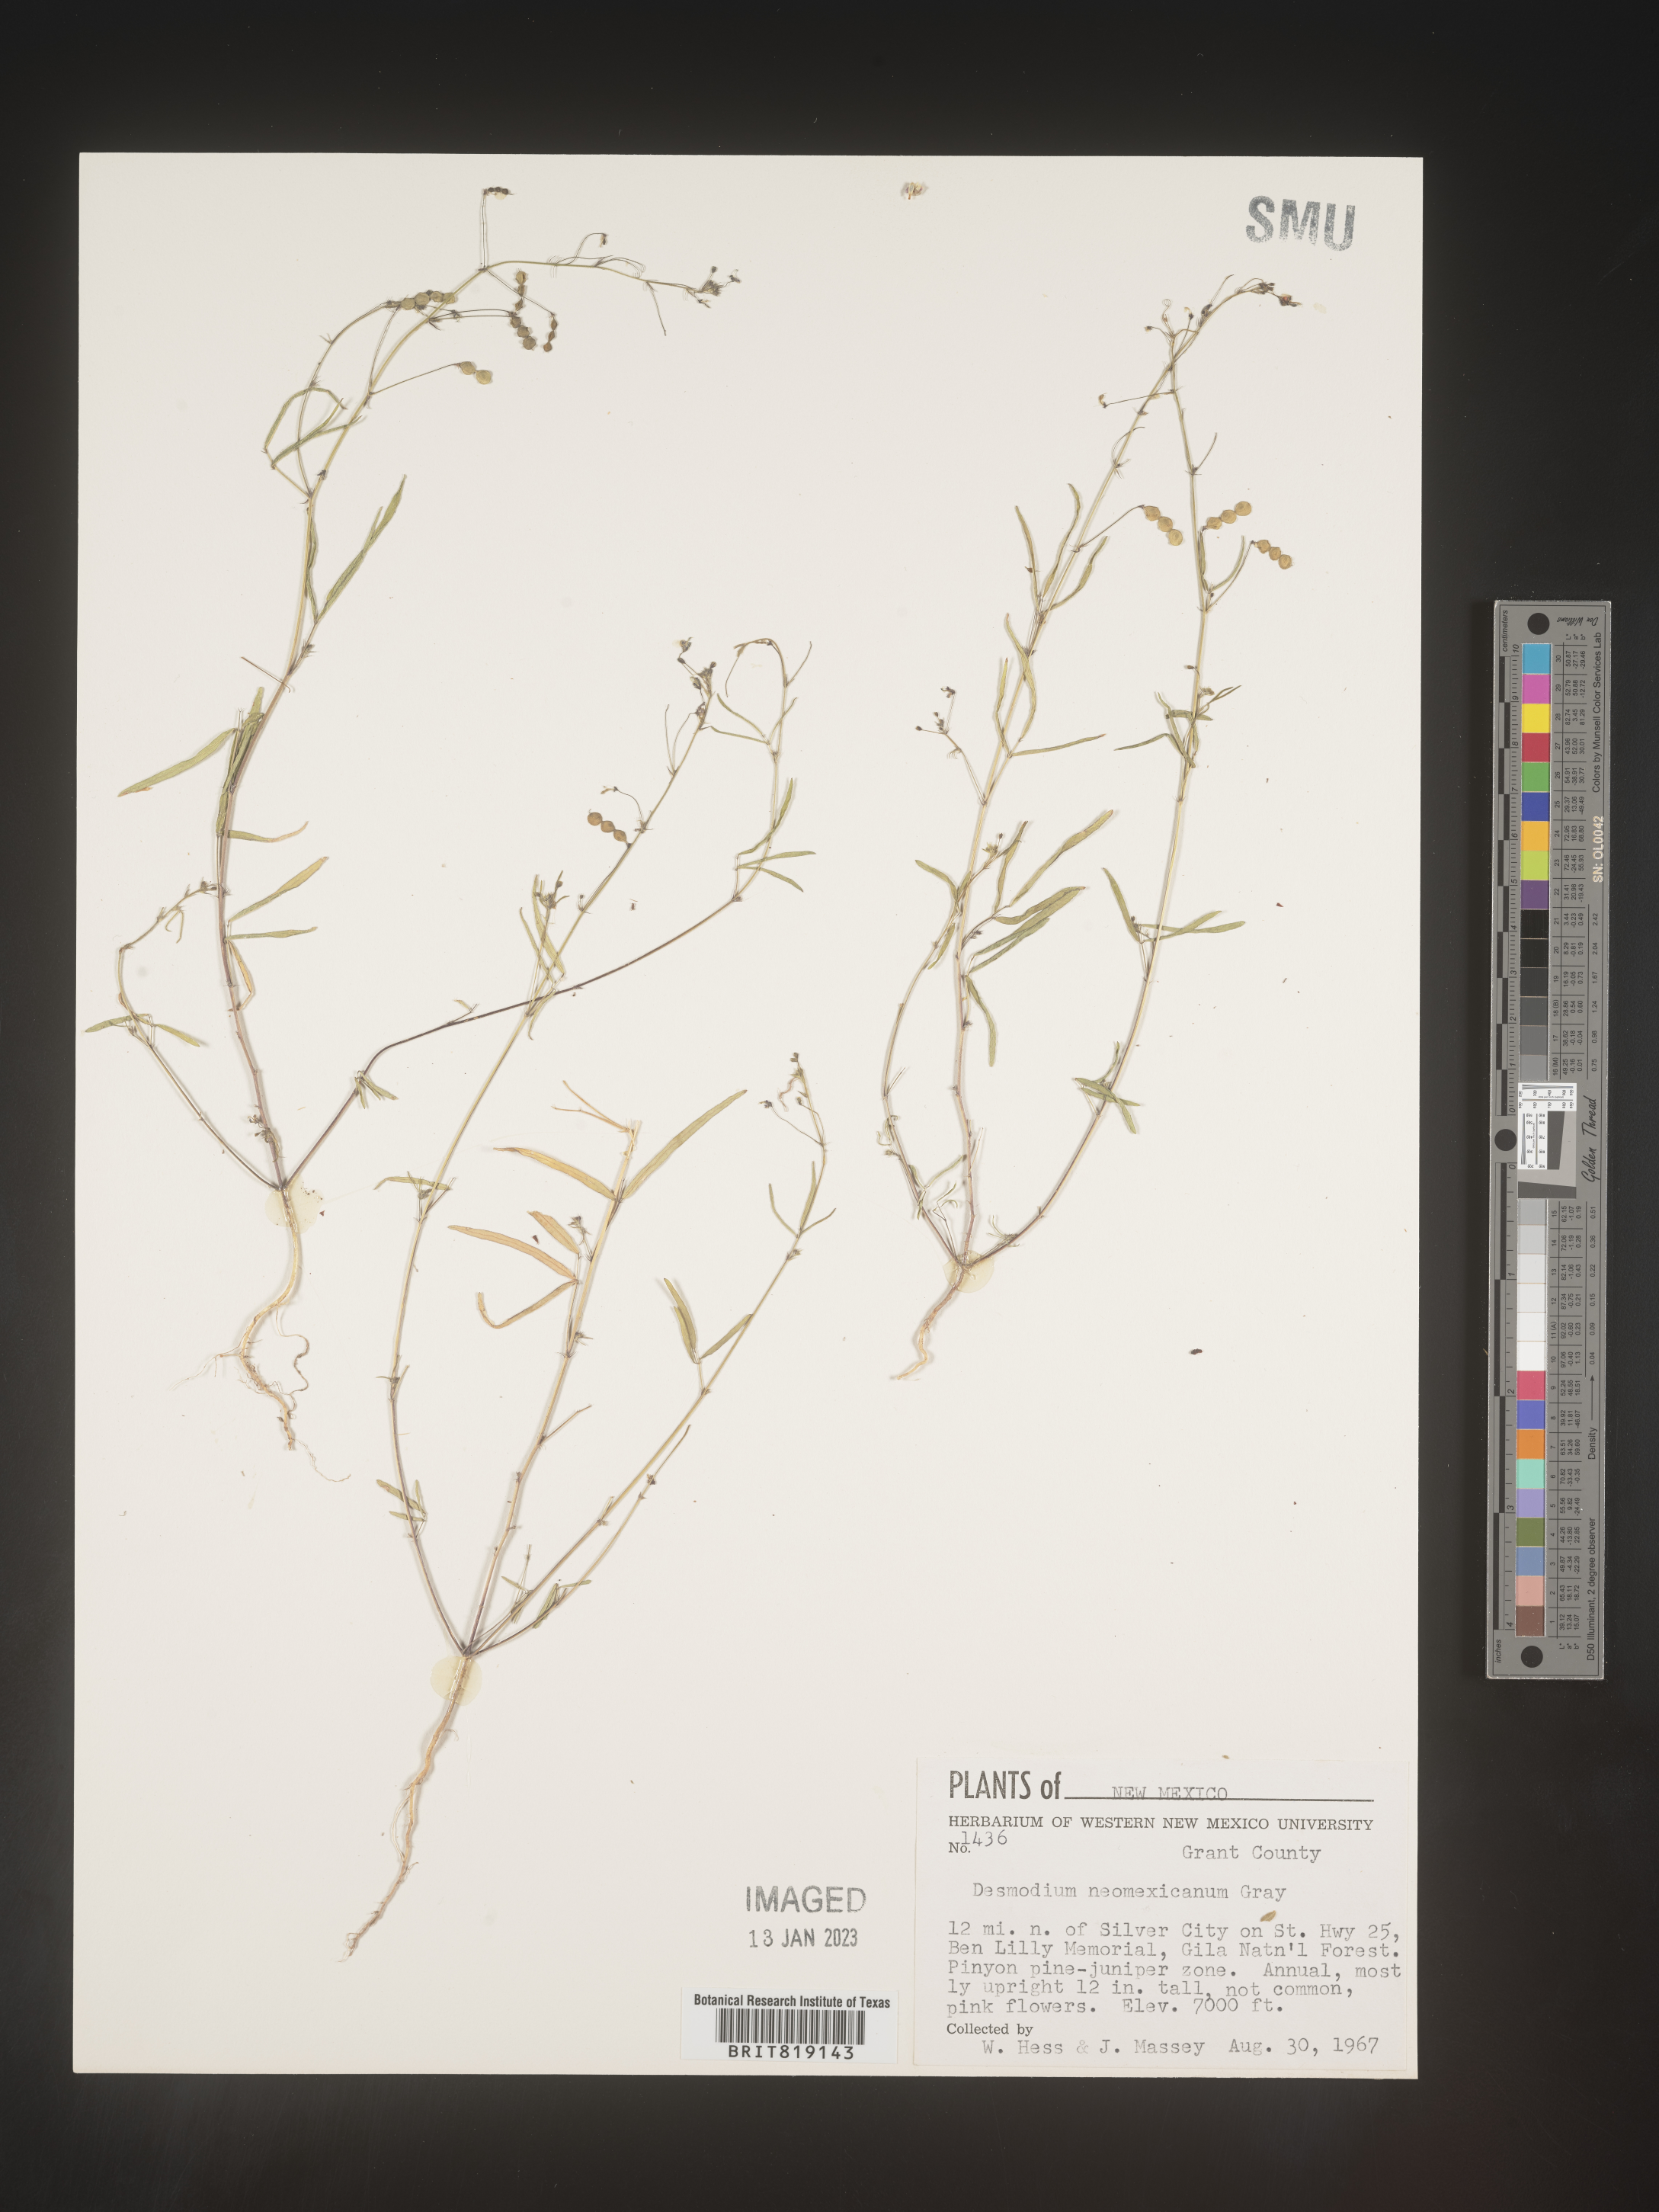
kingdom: Plantae
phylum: Tracheophyta
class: Magnoliopsida
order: Fabales
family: Fabaceae
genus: Desmodium
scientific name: Desmodium
